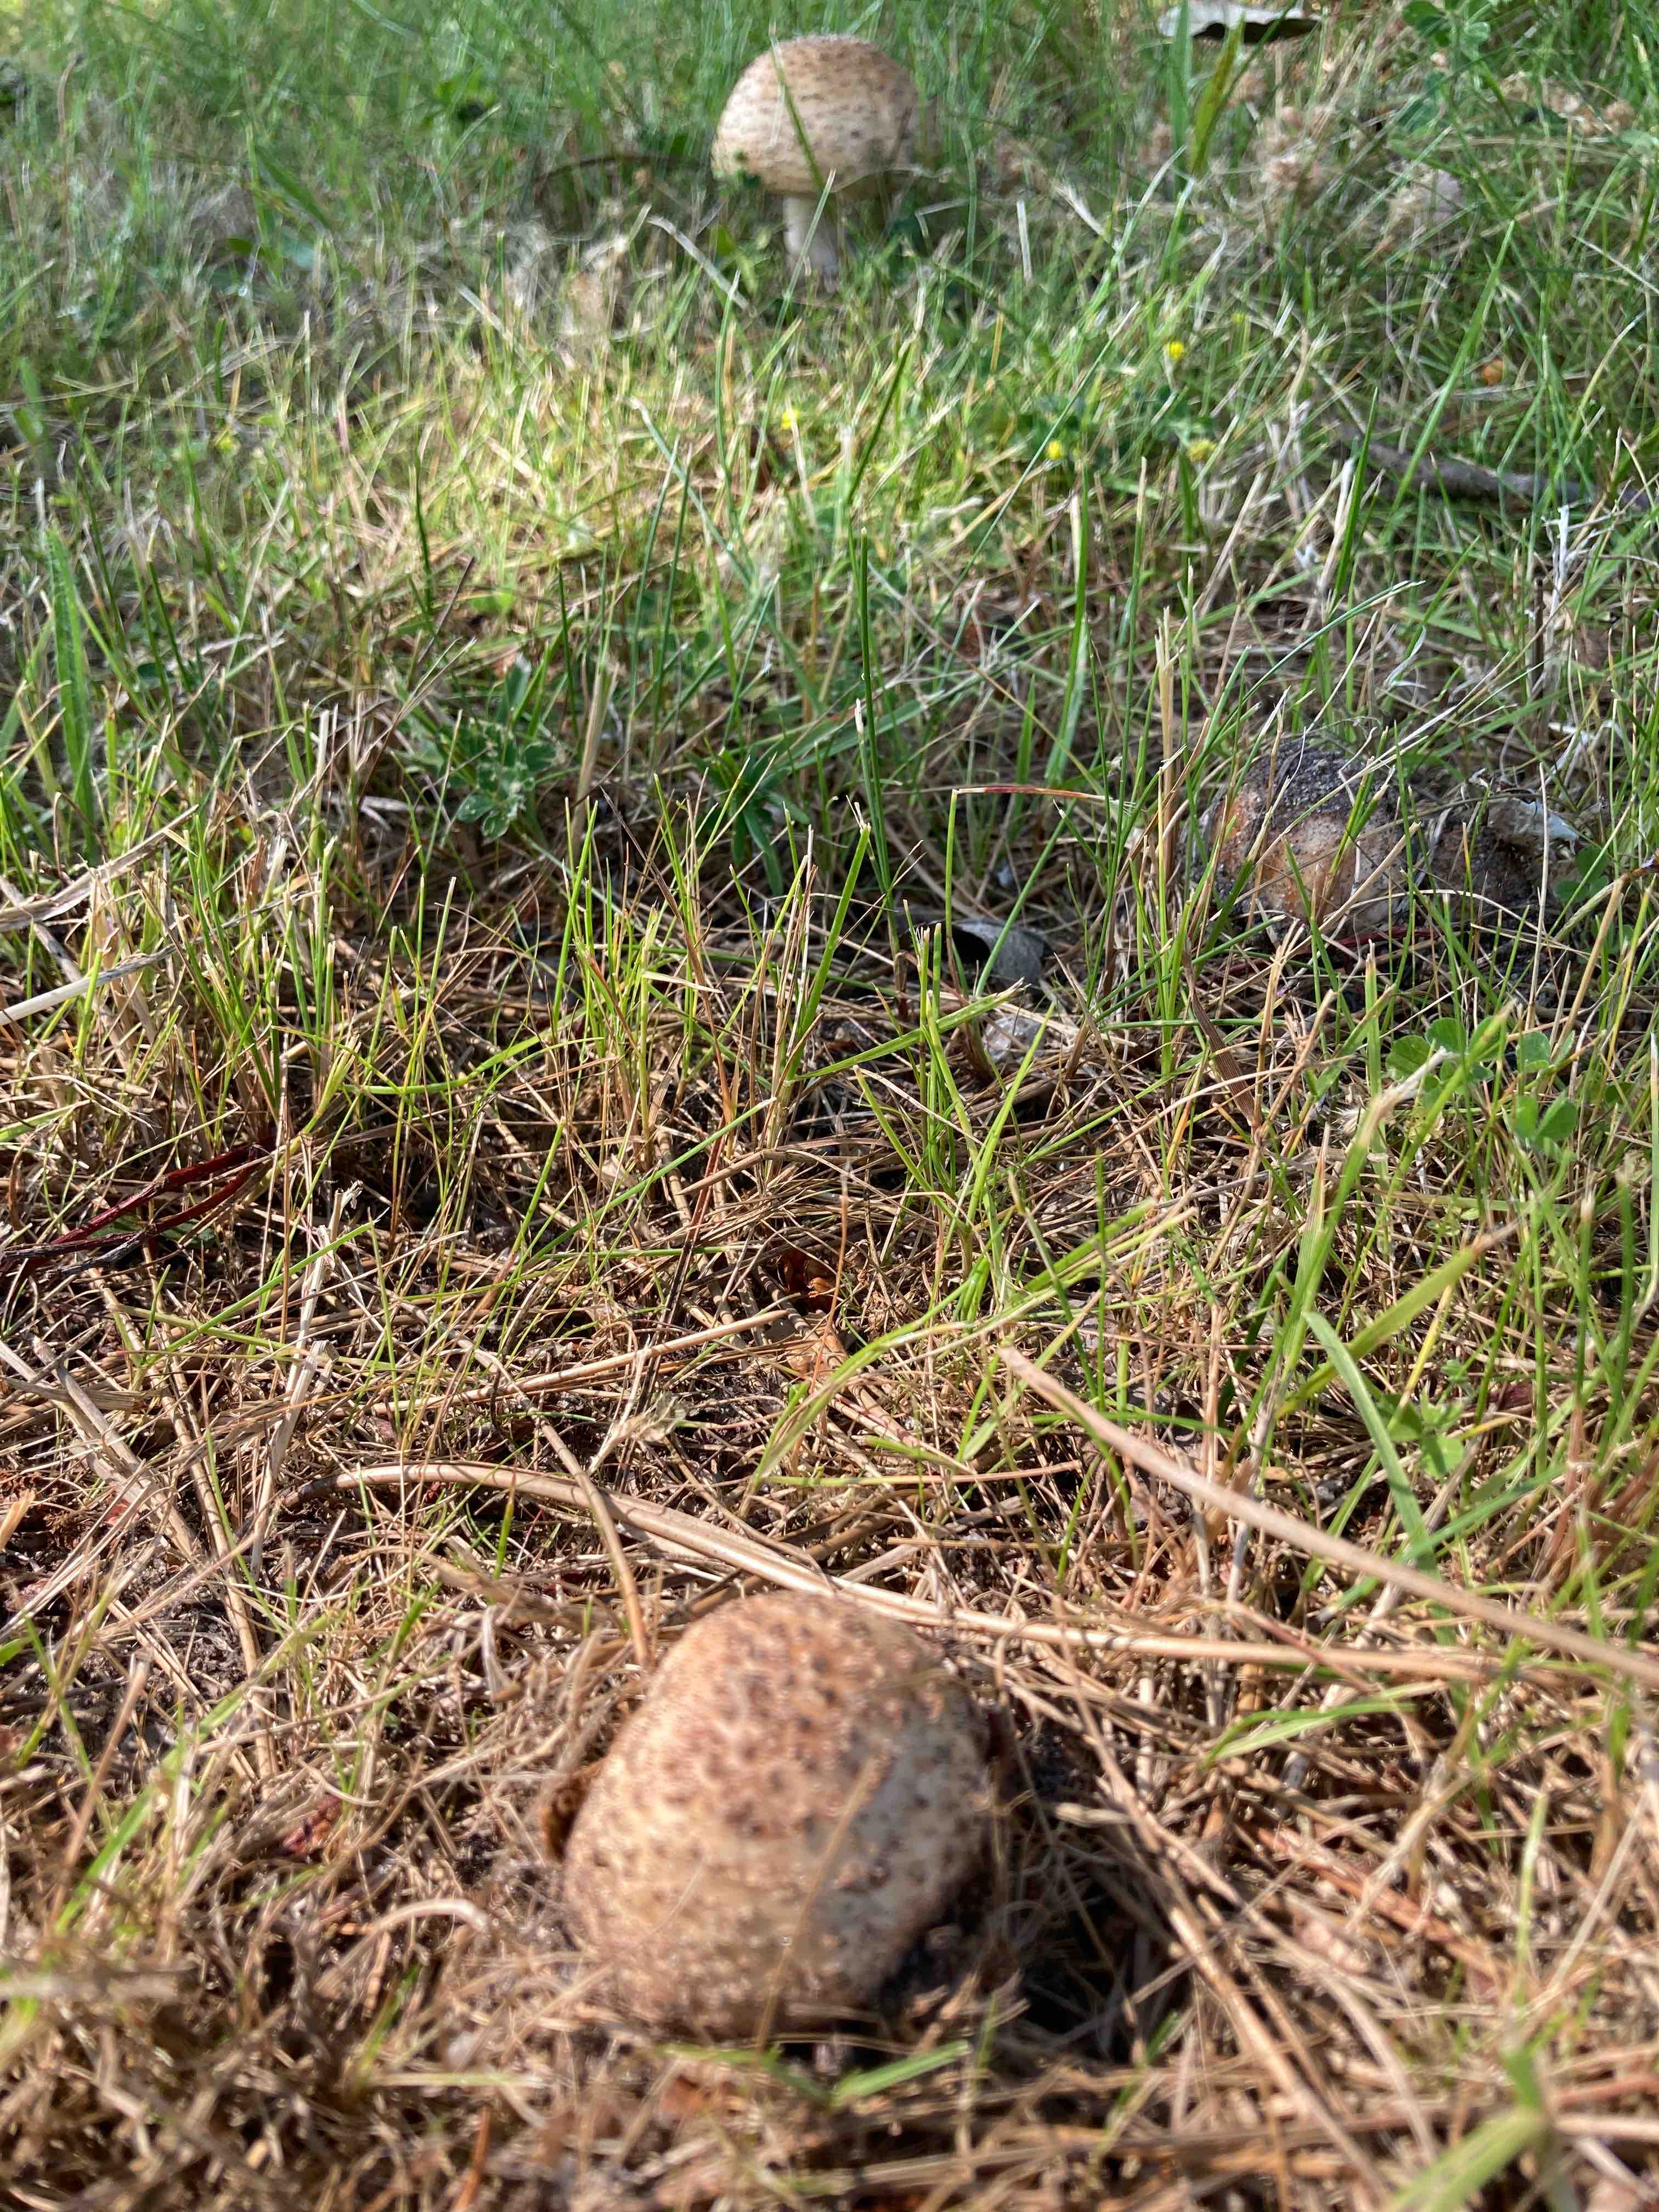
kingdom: Fungi
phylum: Basidiomycota
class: Agaricomycetes
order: Agaricales
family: Amanitaceae
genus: Amanita
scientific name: Amanita rubescens
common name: rødmende fluesvamp
